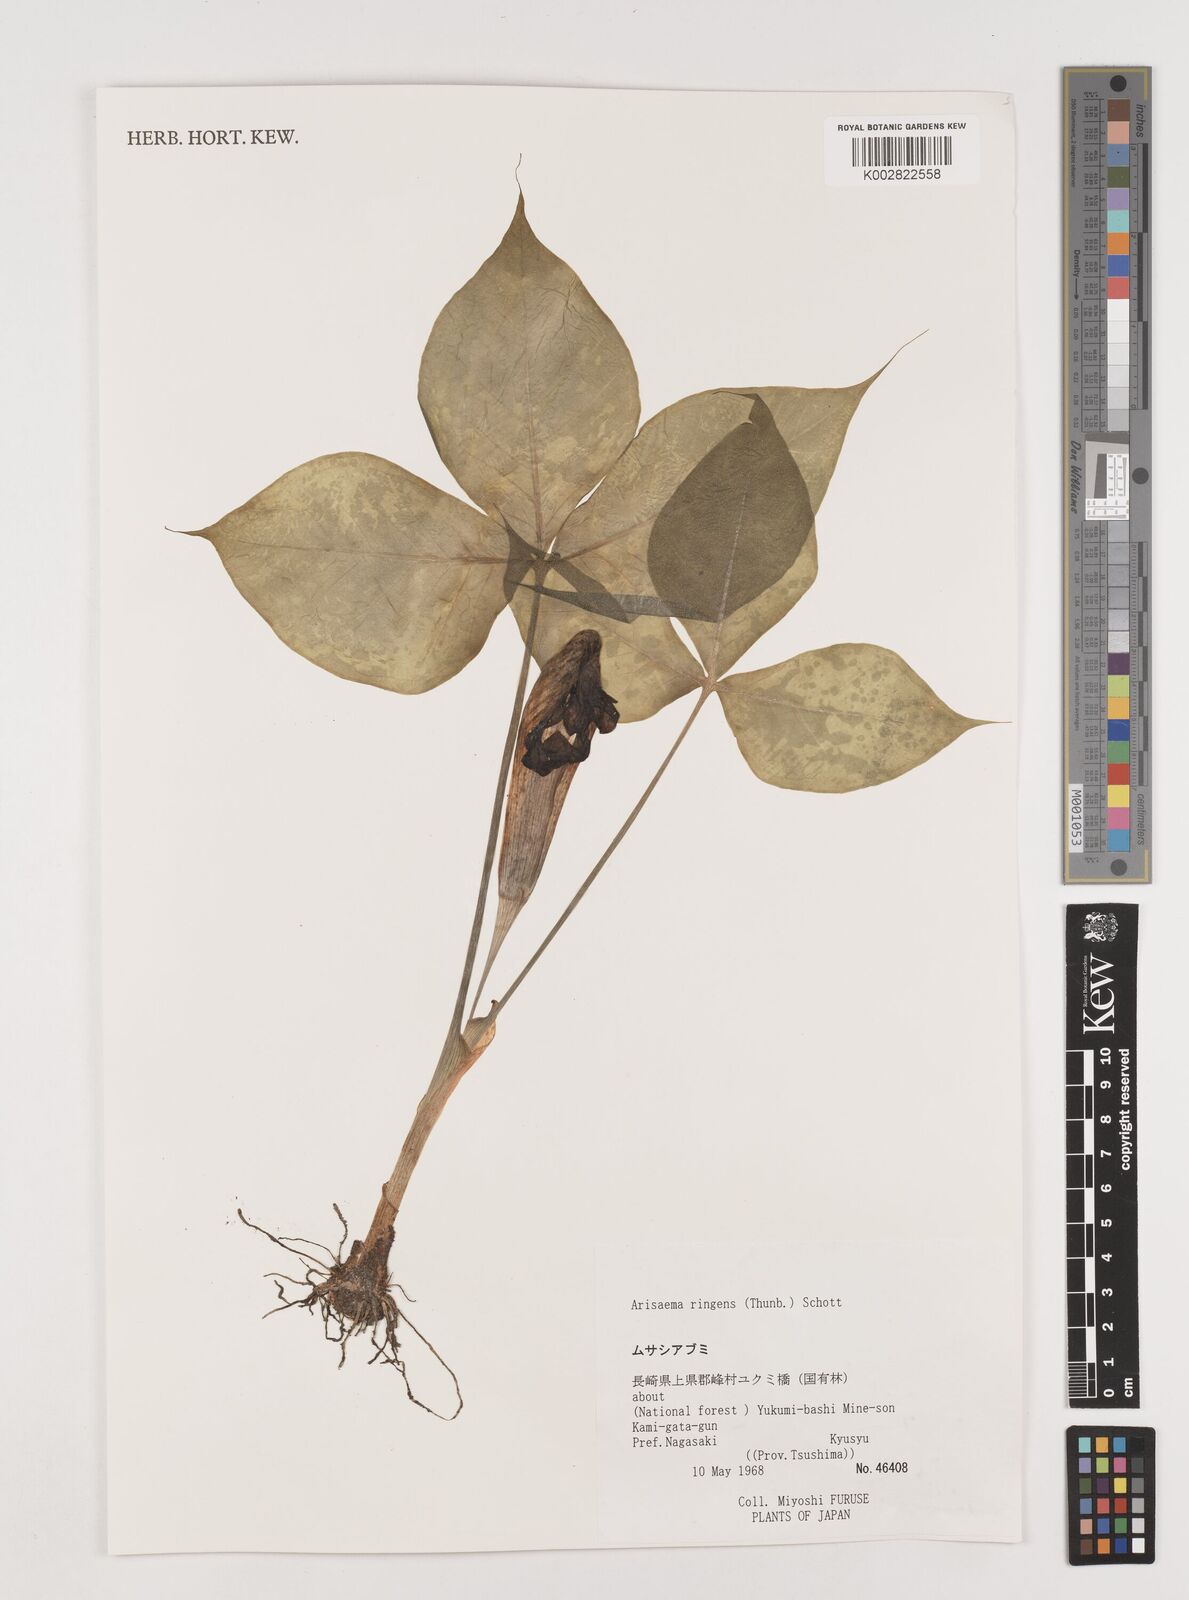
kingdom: Plantae
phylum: Tracheophyta
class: Liliopsida
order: Alismatales
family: Araceae
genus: Arisaema
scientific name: Arisaema ringens
